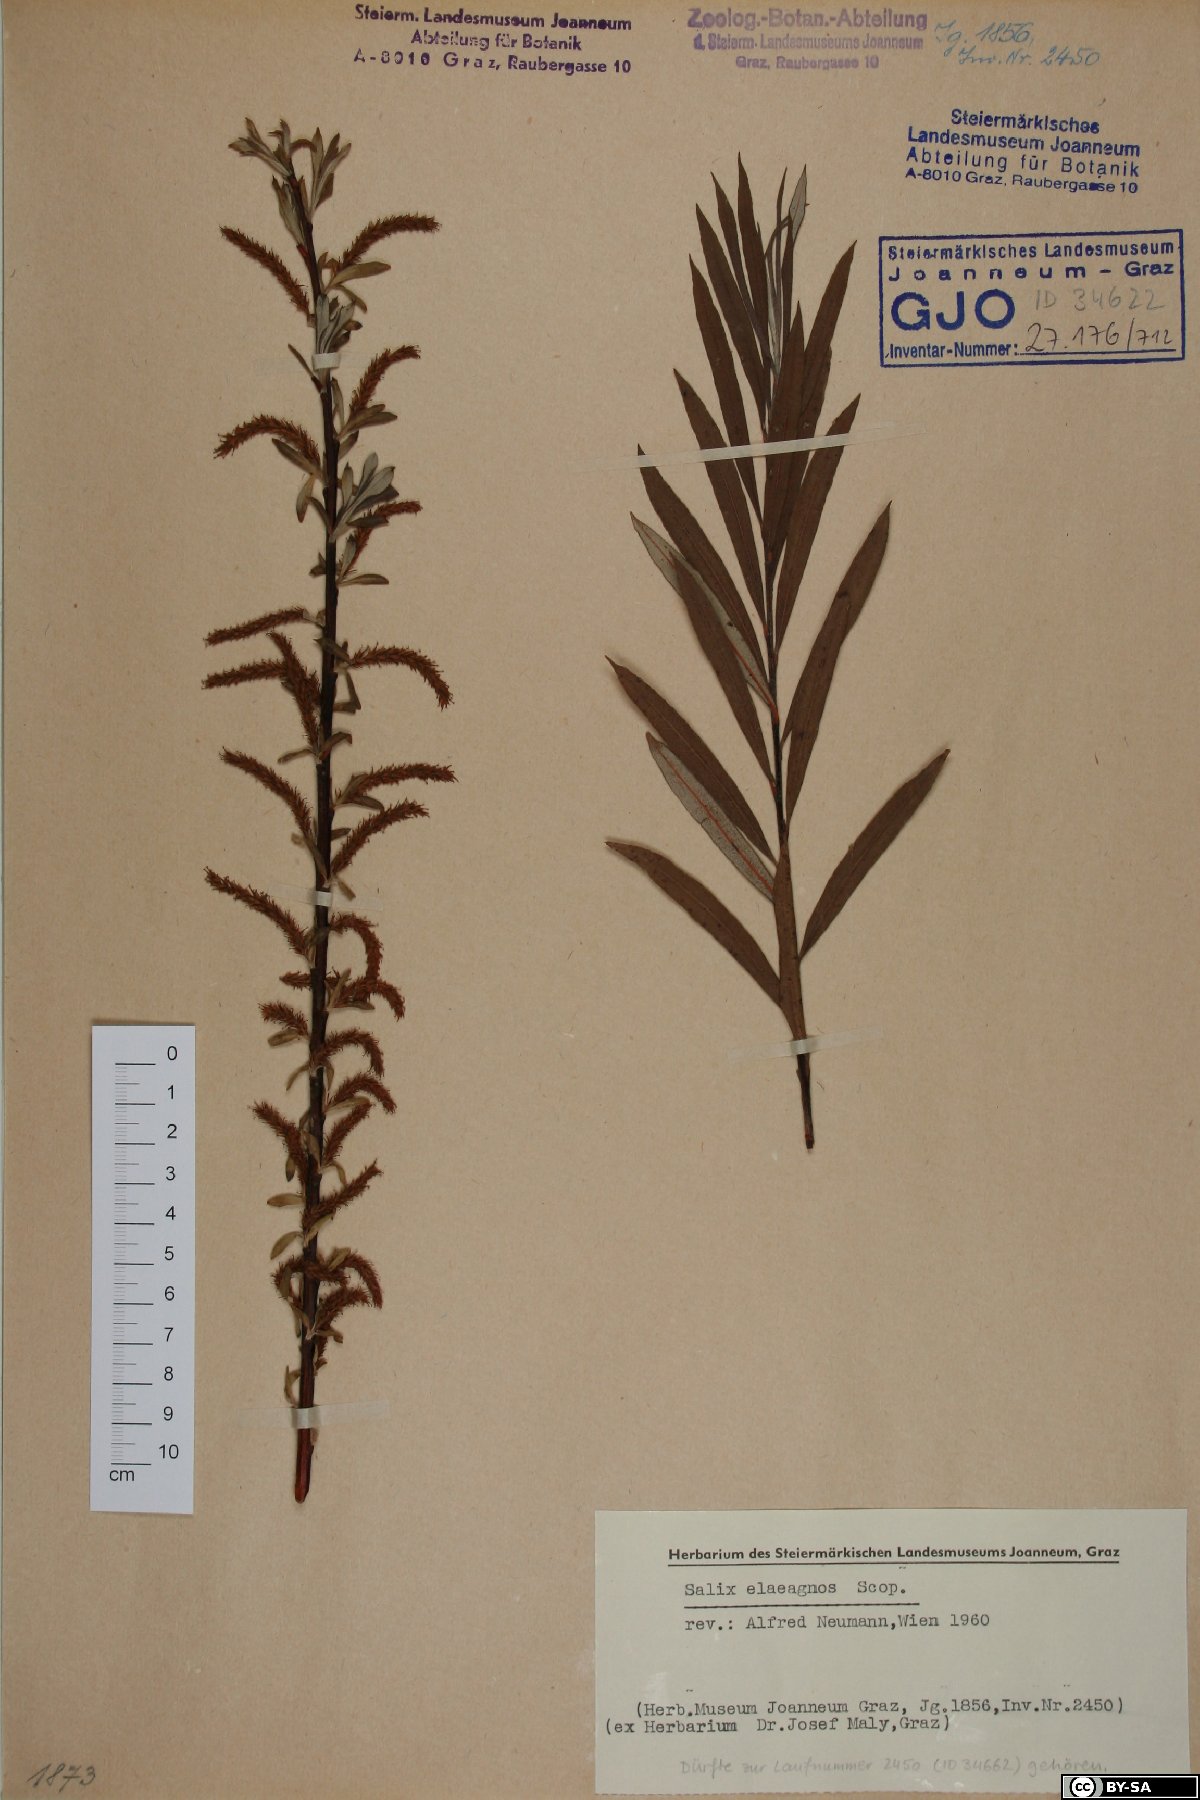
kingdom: Plantae
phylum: Tracheophyta
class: Magnoliopsida
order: Malpighiales
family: Salicaceae
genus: Salix
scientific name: Salix eleagnos
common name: Elaeagnus willow
